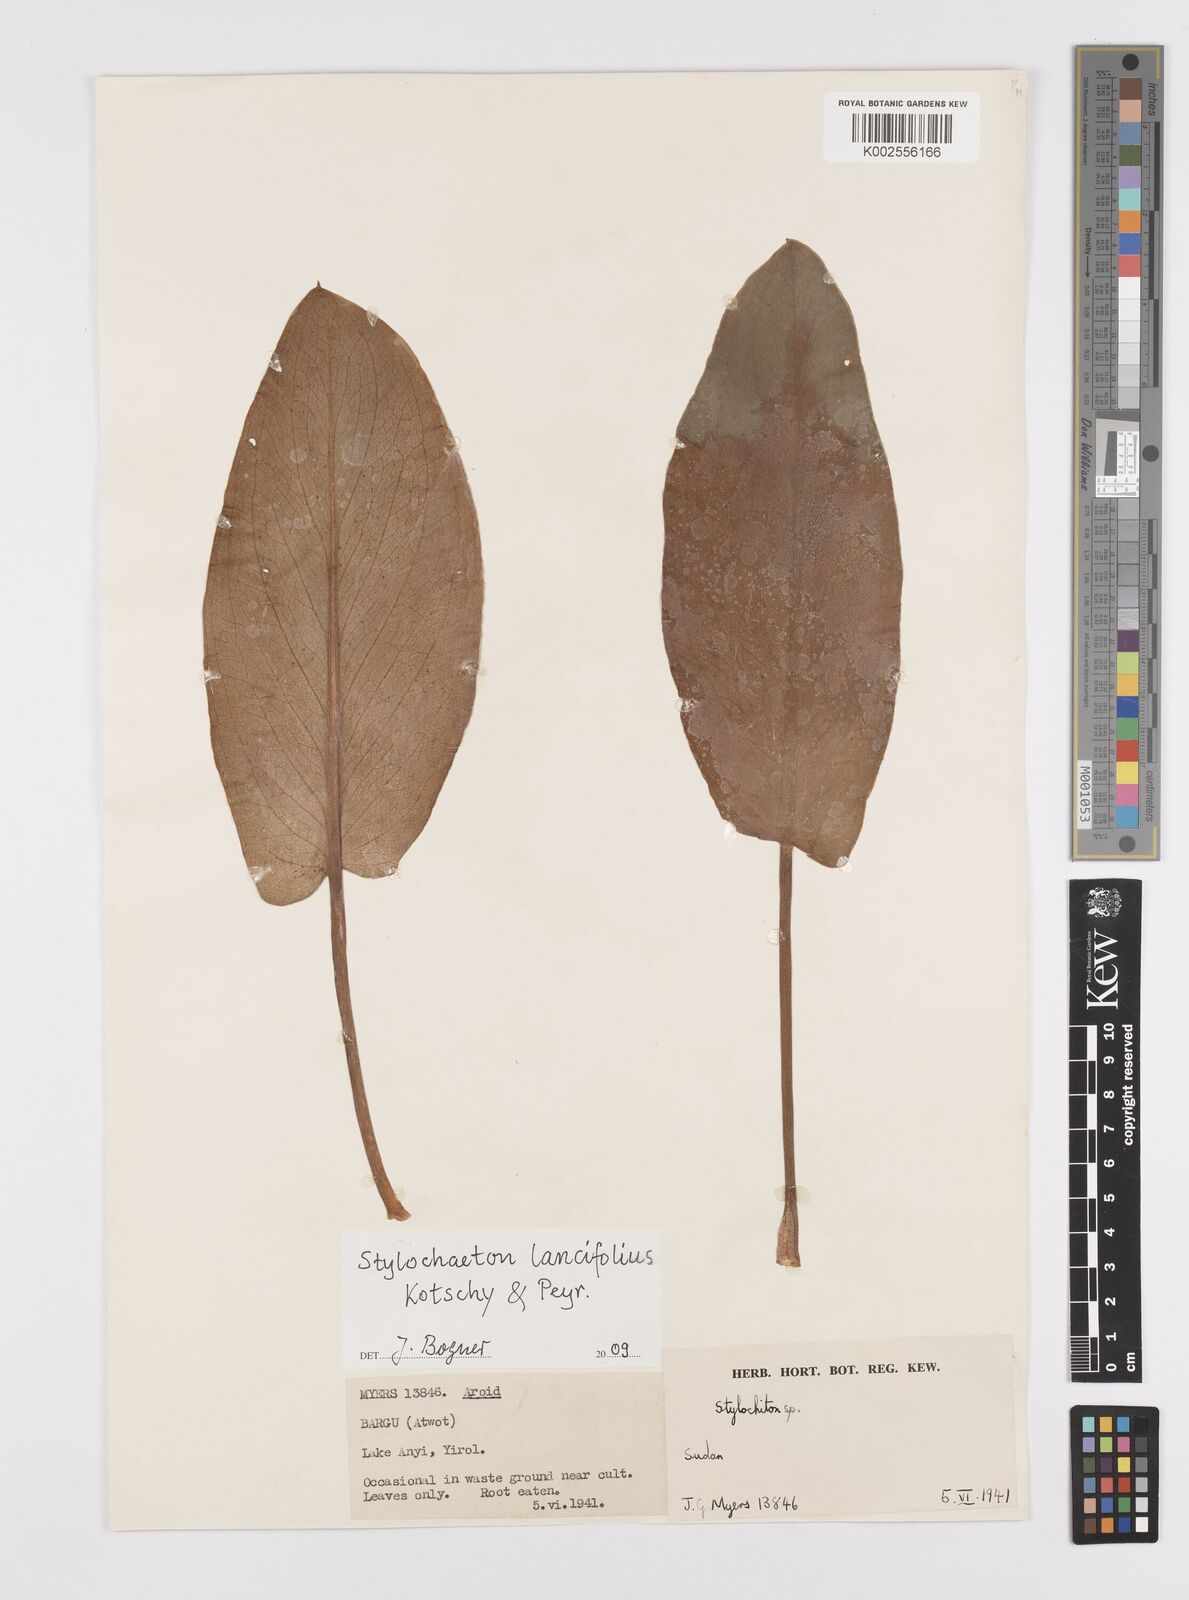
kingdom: Plantae
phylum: Tracheophyta
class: Liliopsida
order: Alismatales
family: Araceae
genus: Stylochaeton
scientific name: Stylochaeton lancifolium
